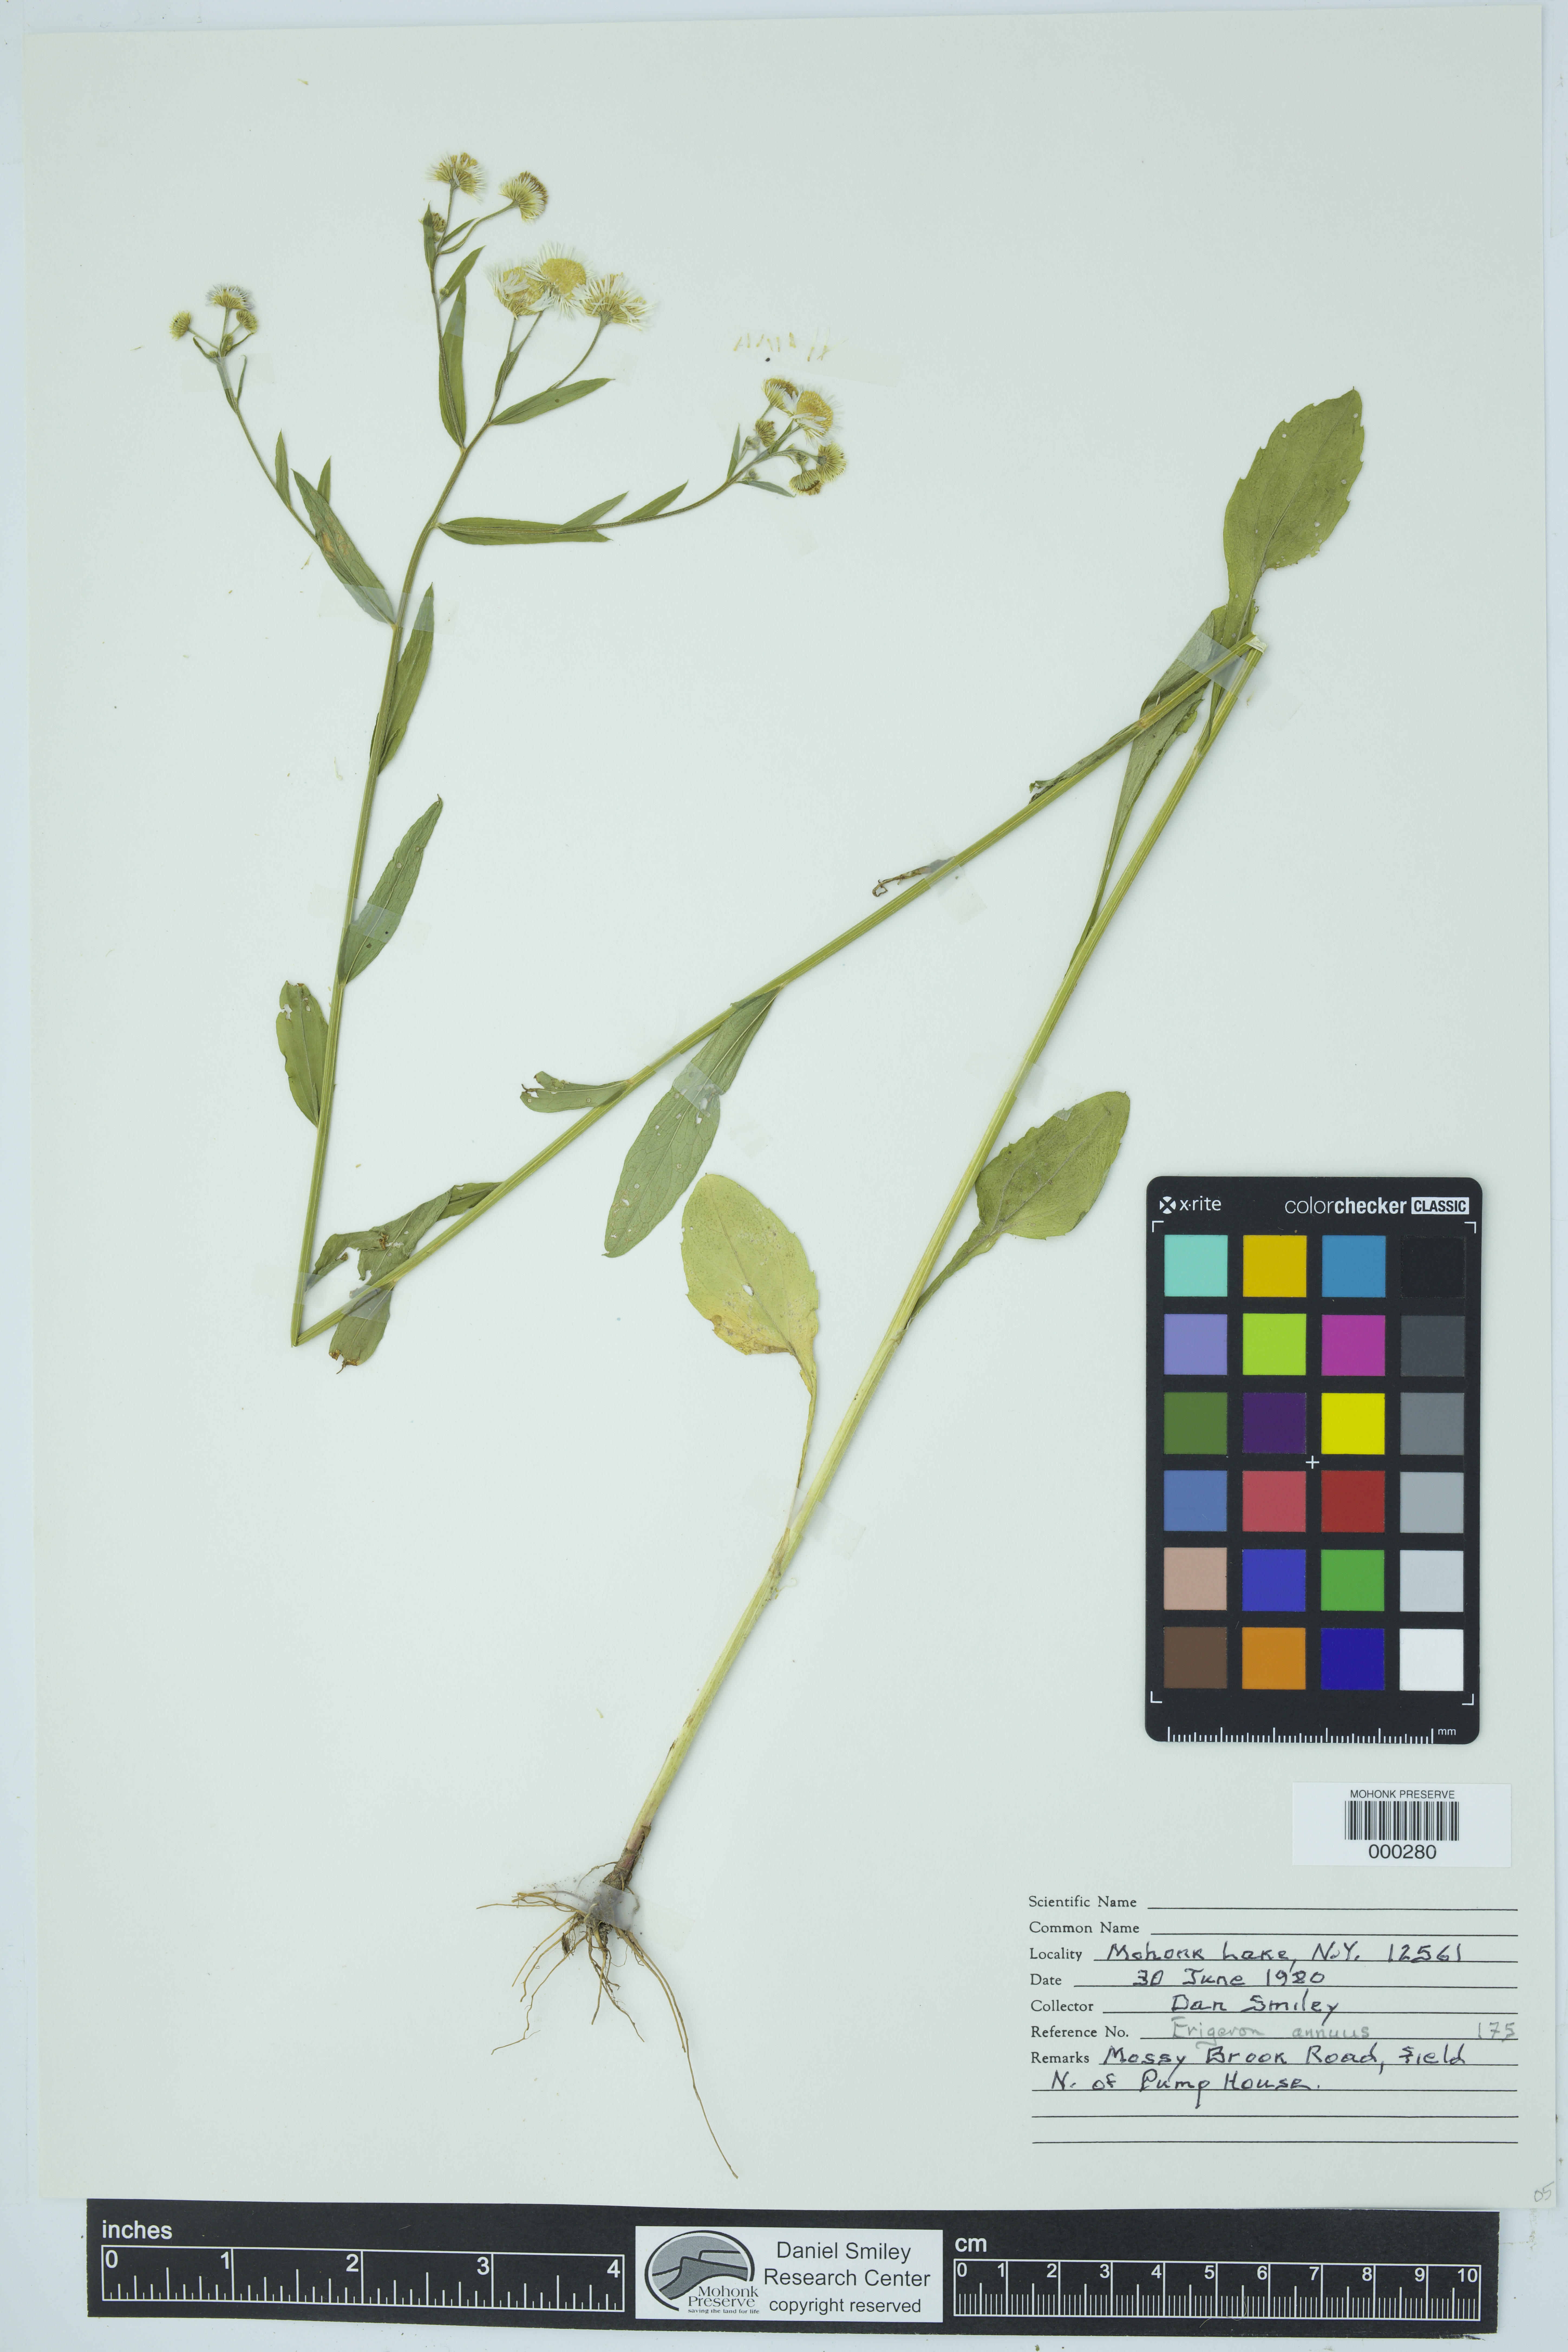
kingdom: Plantae
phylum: Tracheophyta
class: Magnoliopsida
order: Asterales
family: Asteraceae
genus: Erigeron
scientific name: Erigeron annuus
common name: Tall fleabane
